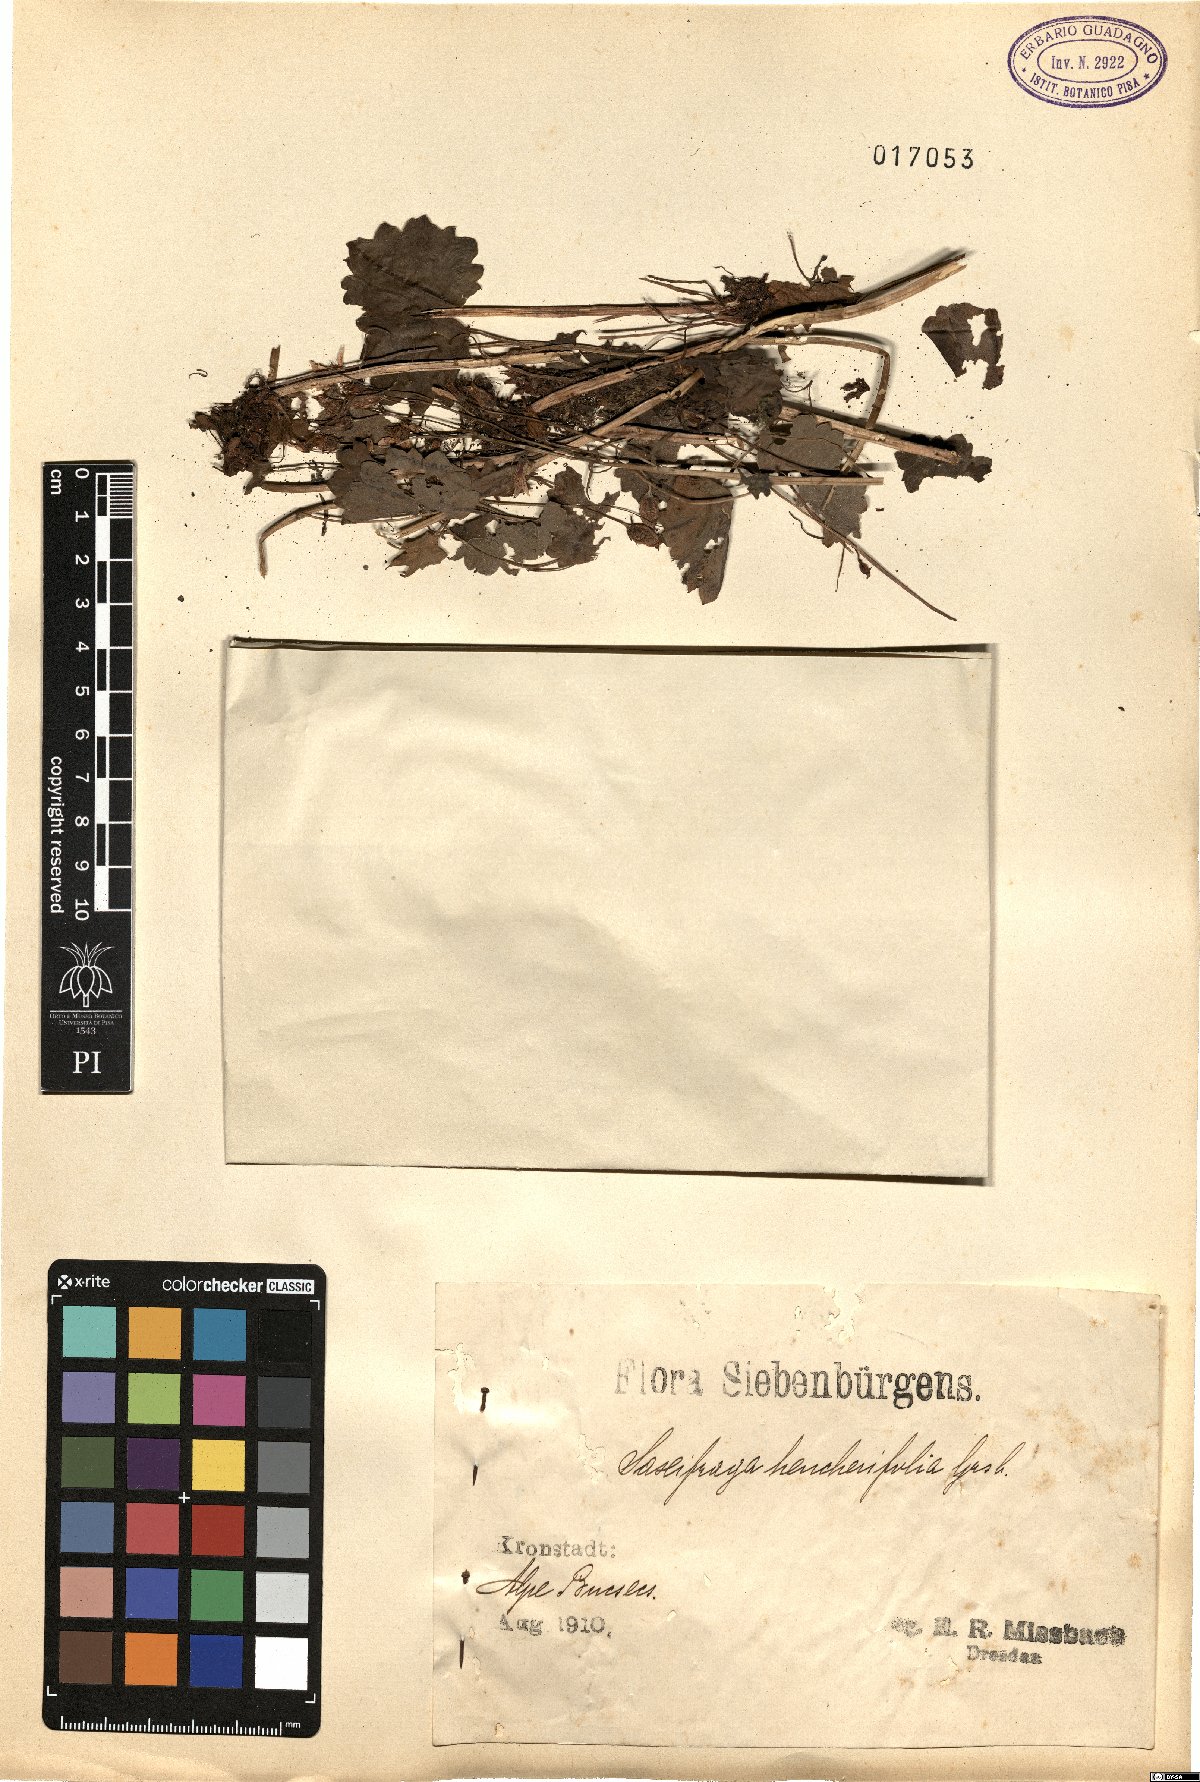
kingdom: Plantae
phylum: Tracheophyta
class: Magnoliopsida
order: Saxifragales
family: Saxifragaceae
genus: Saxifraga
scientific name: Saxifraga rotundifolia
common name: Round-leaved saxifrage
